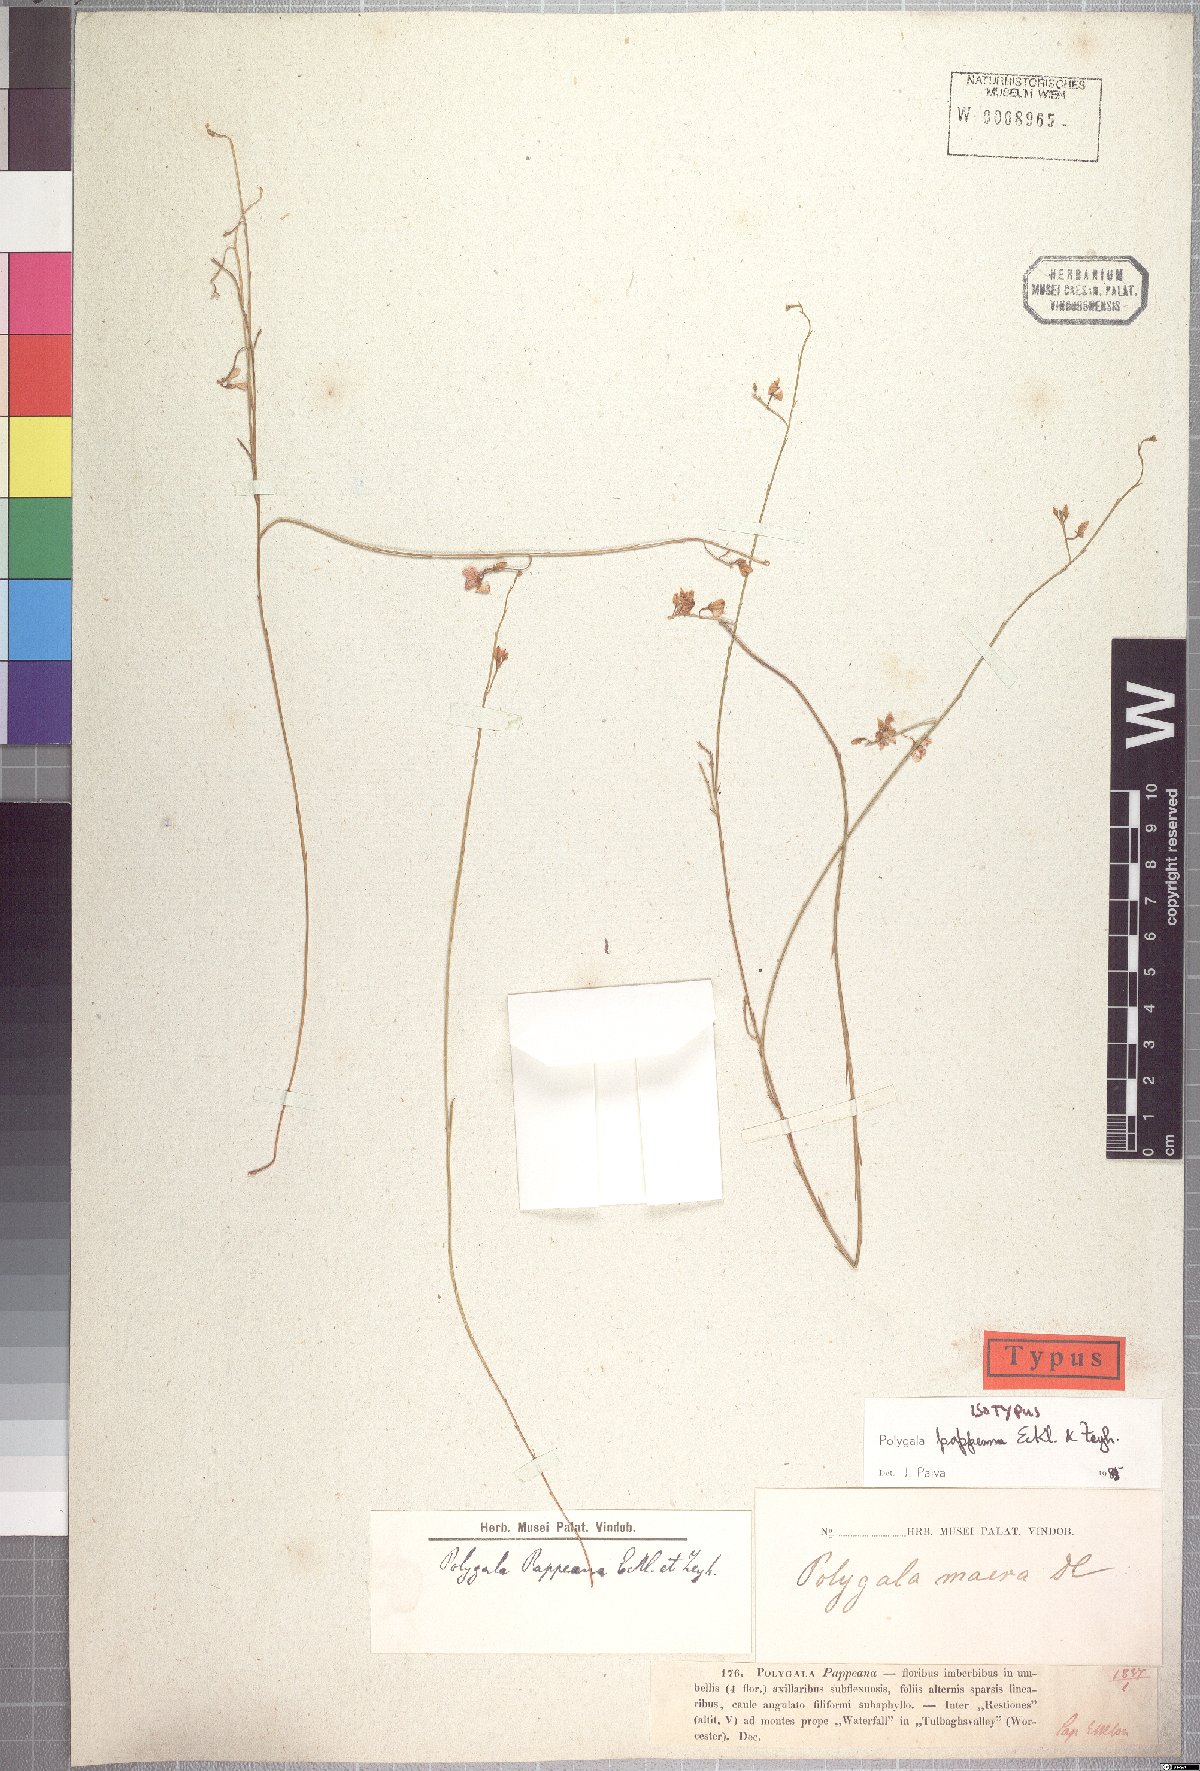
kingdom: Plantae
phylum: Tracheophyta
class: Magnoliopsida
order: Fabales
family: Polygalaceae
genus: Polygala
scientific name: Polygala pappeana
